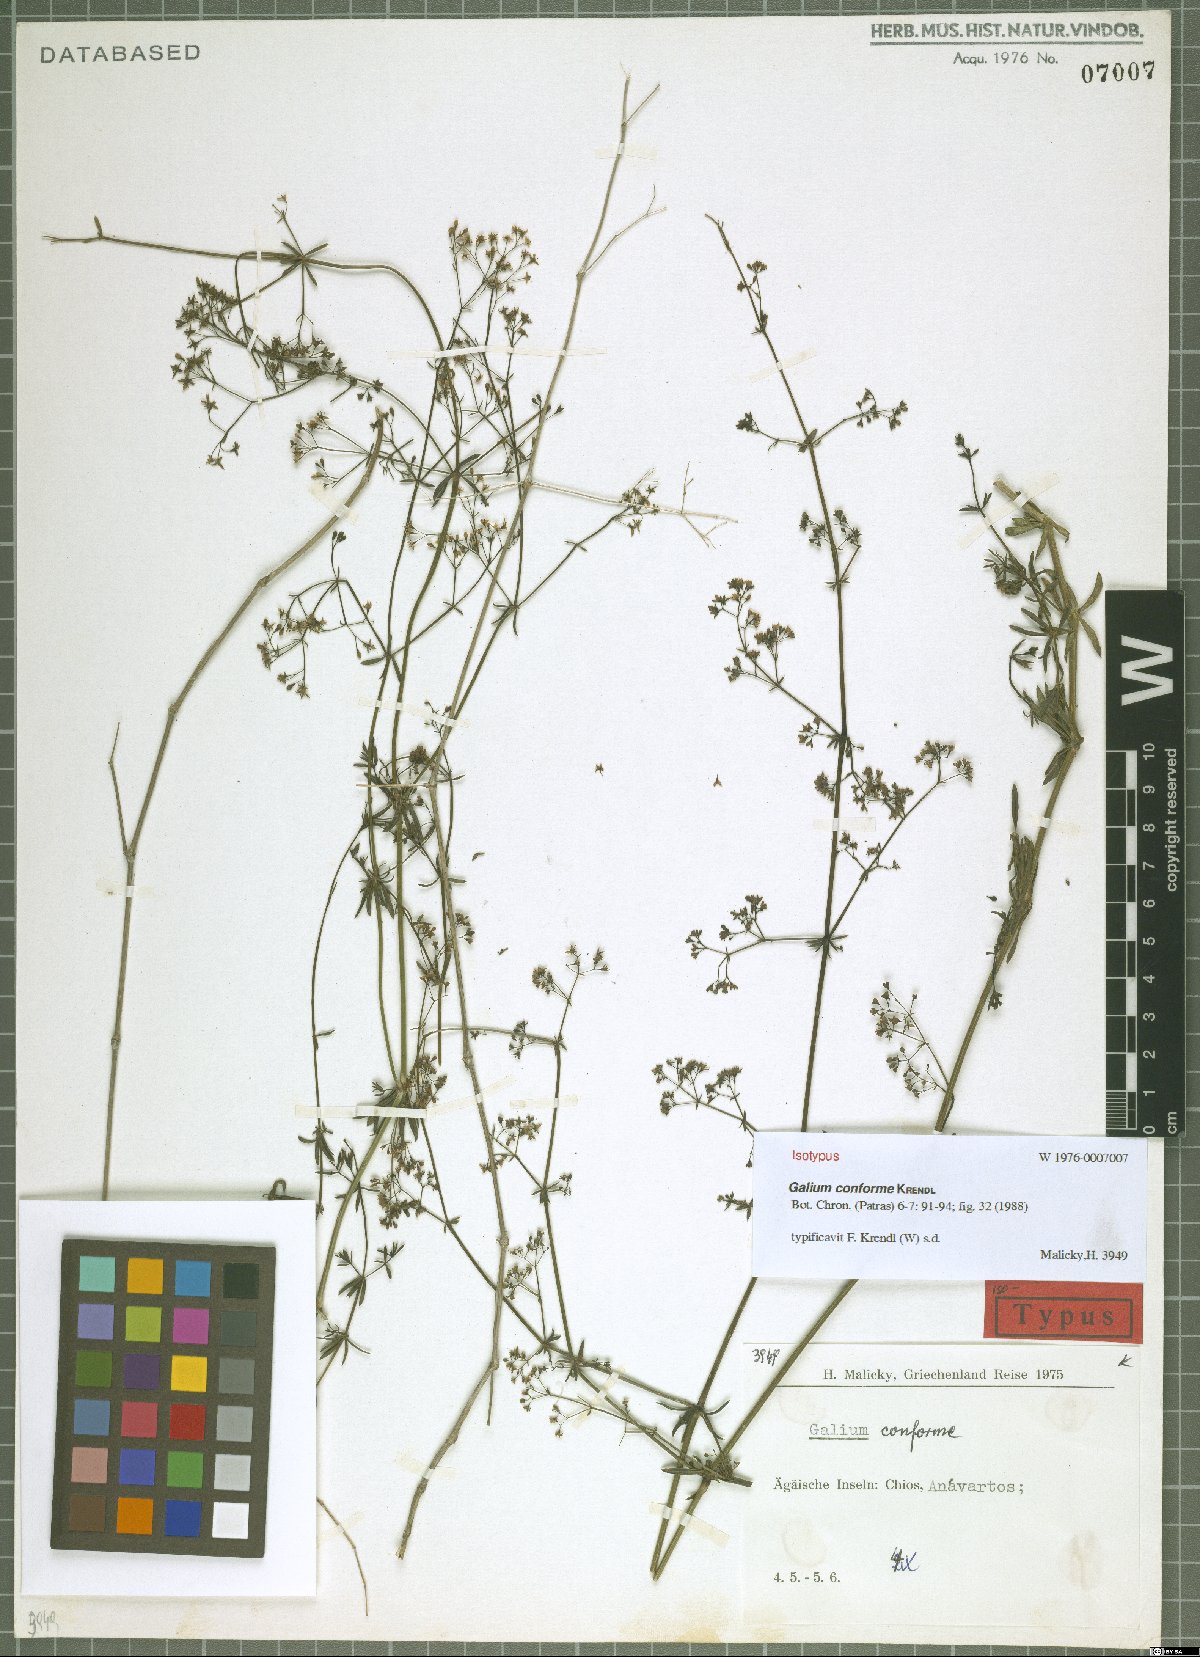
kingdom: Plantae
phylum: Tracheophyta
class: Magnoliopsida
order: Gentianales
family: Rubiaceae
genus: Galium
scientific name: Galium conforme
